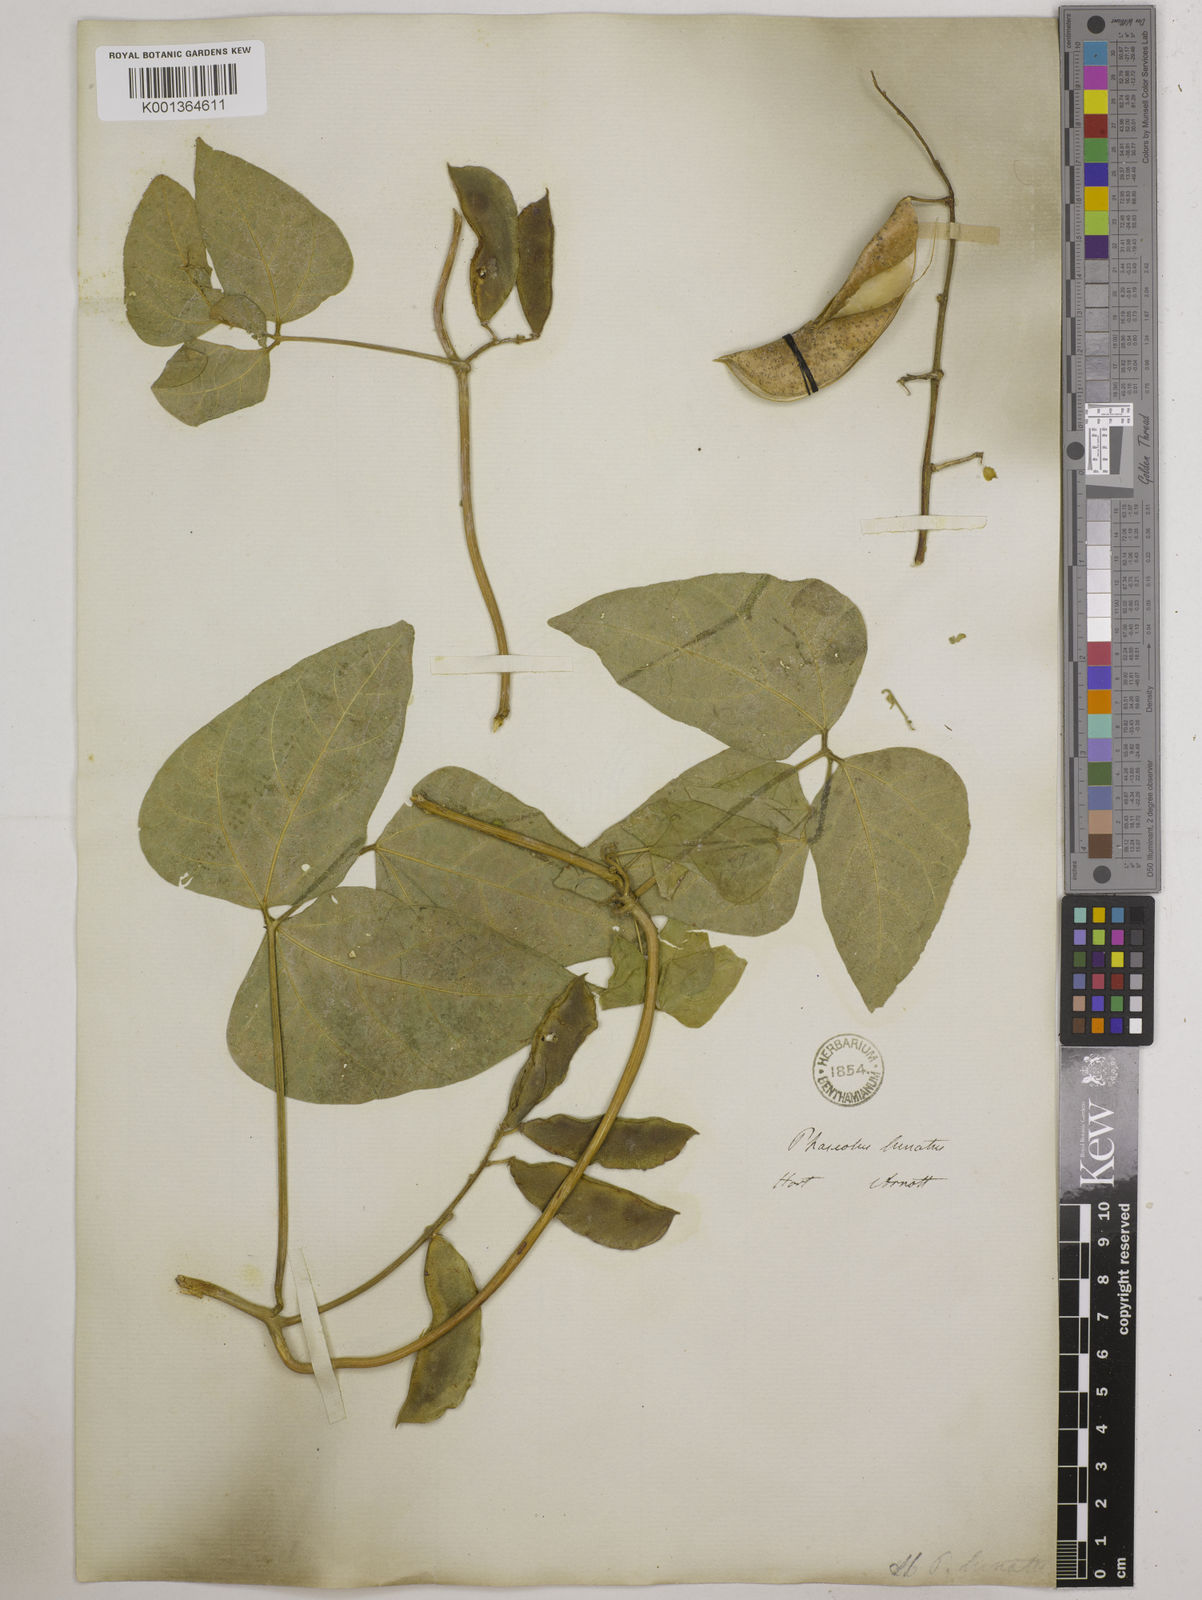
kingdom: Plantae
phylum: Tracheophyta
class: Magnoliopsida
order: Fabales
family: Fabaceae
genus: Phaseolus
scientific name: Phaseolus lunatus
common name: Sieva bean
